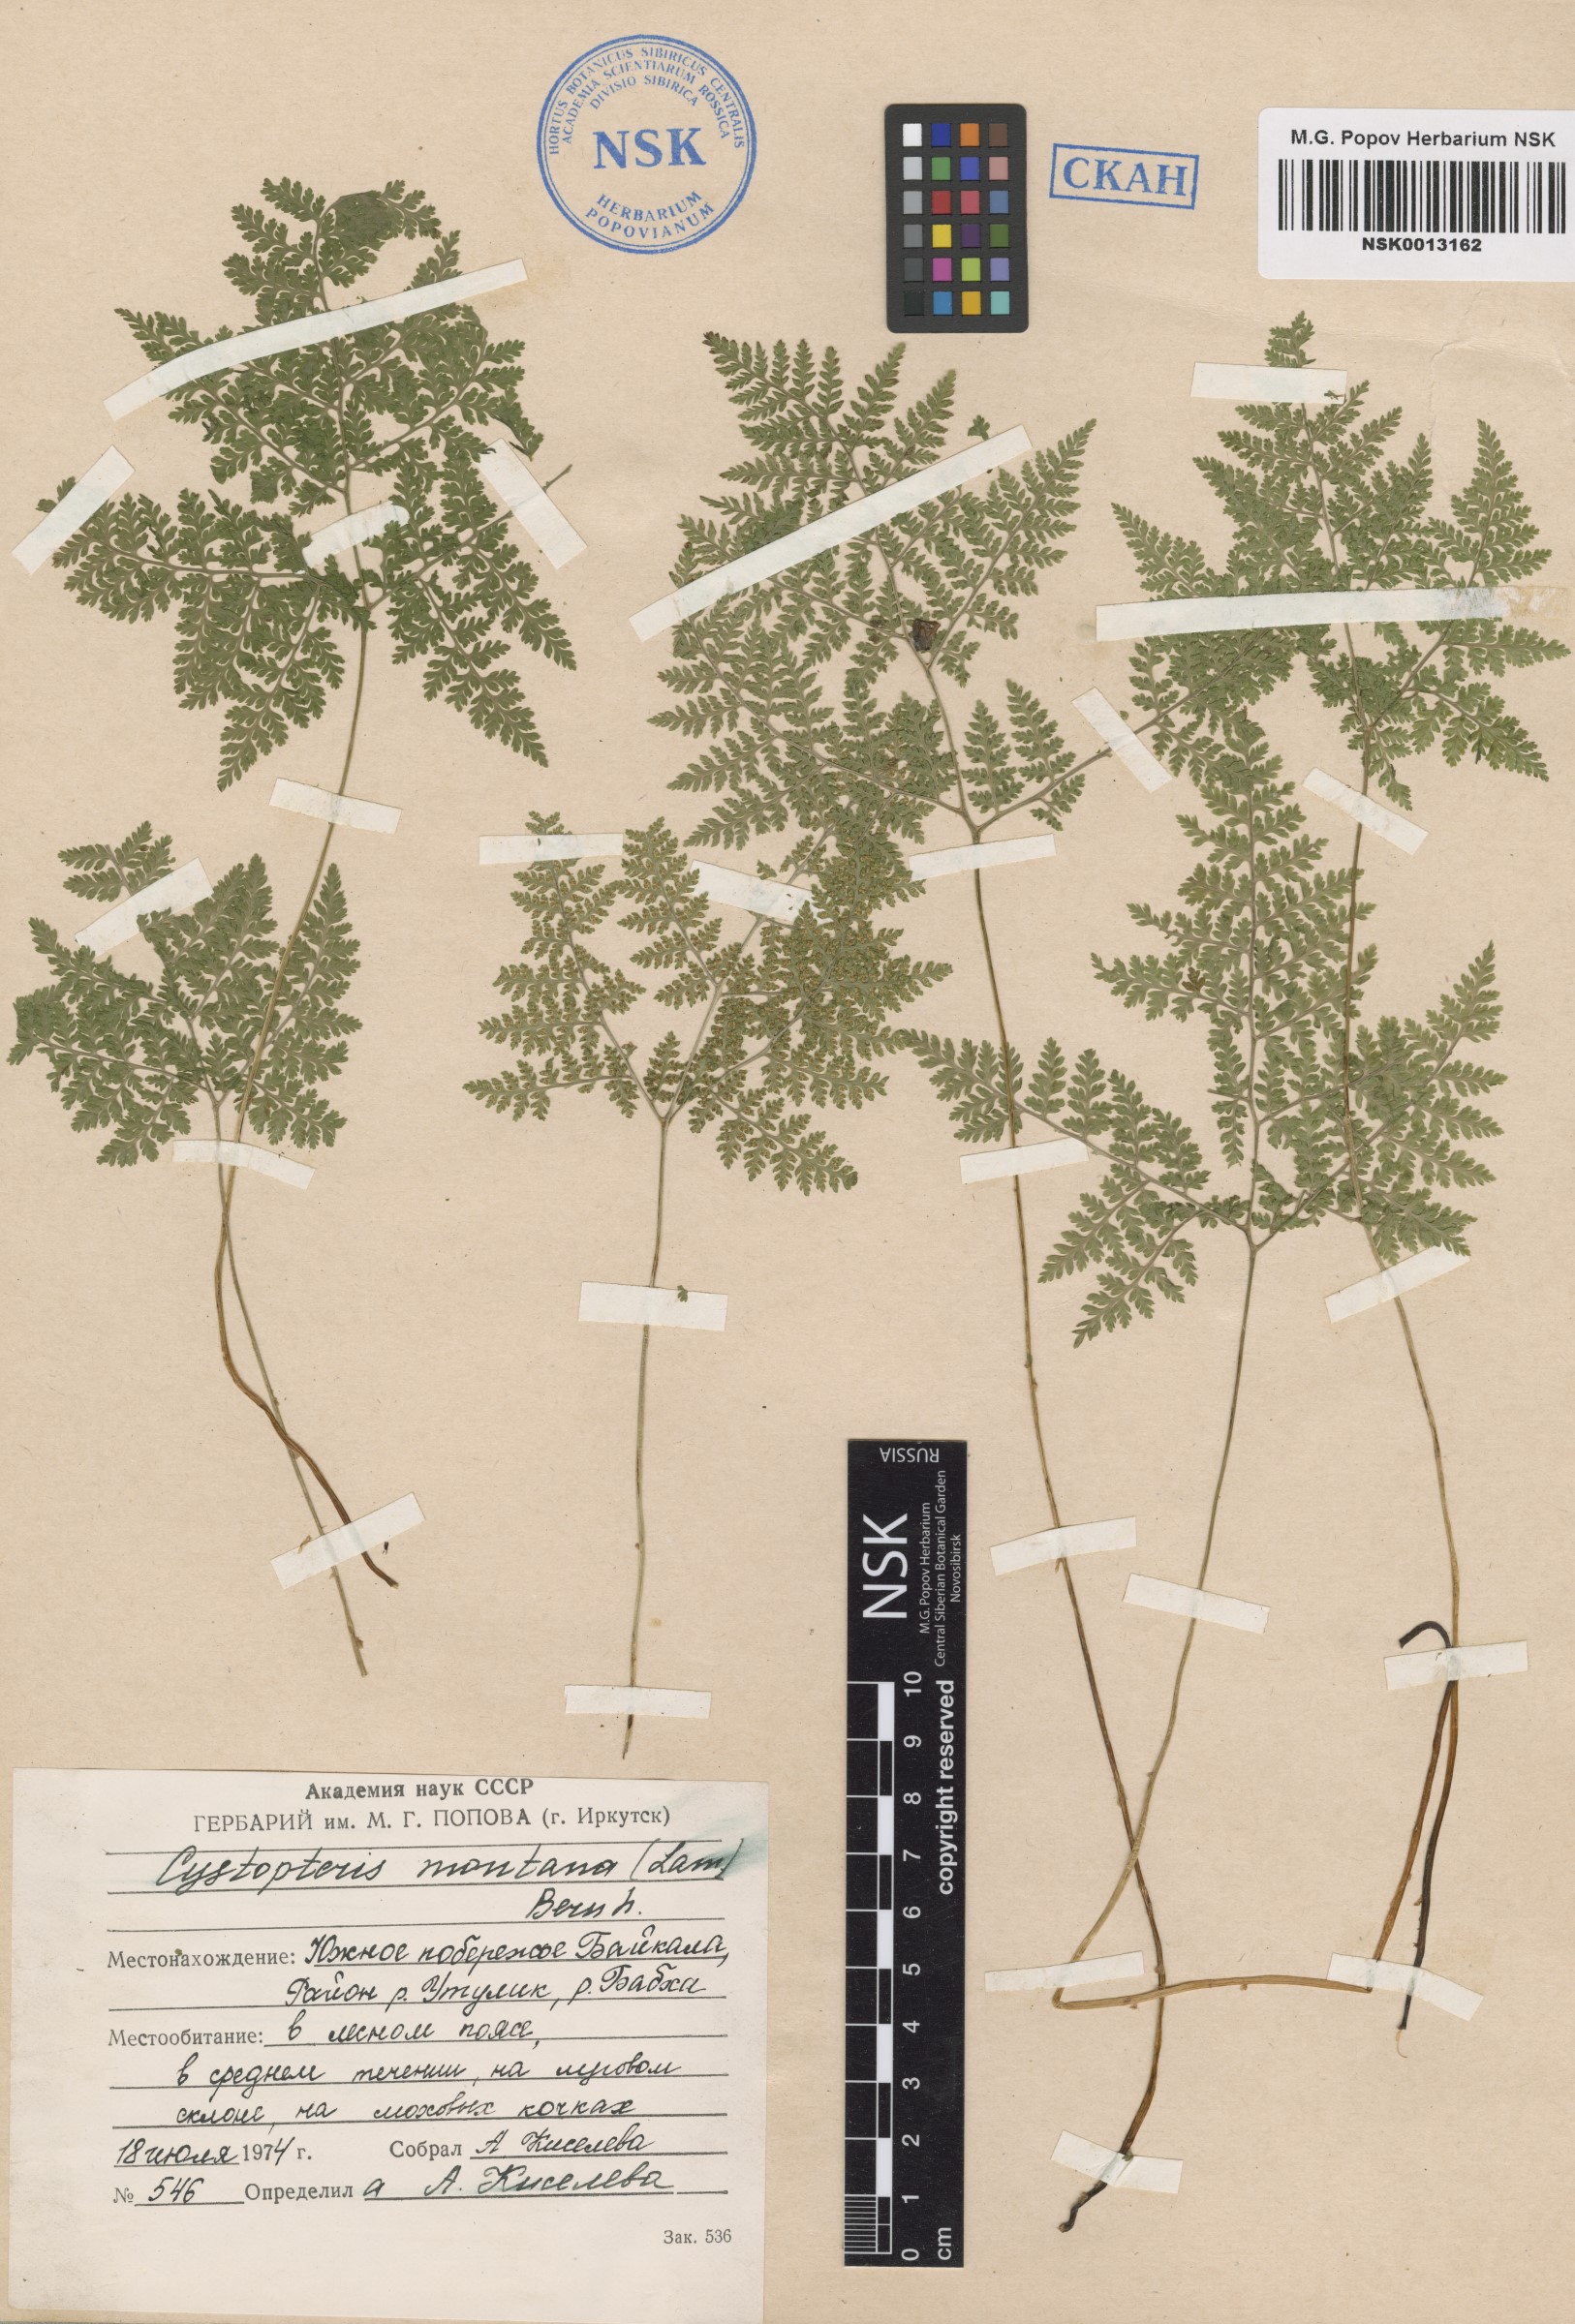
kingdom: Plantae
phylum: Tracheophyta
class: Polypodiopsida
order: Polypodiales
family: Cystopteridaceae
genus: Cystopteris
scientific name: Cystopteris montana
